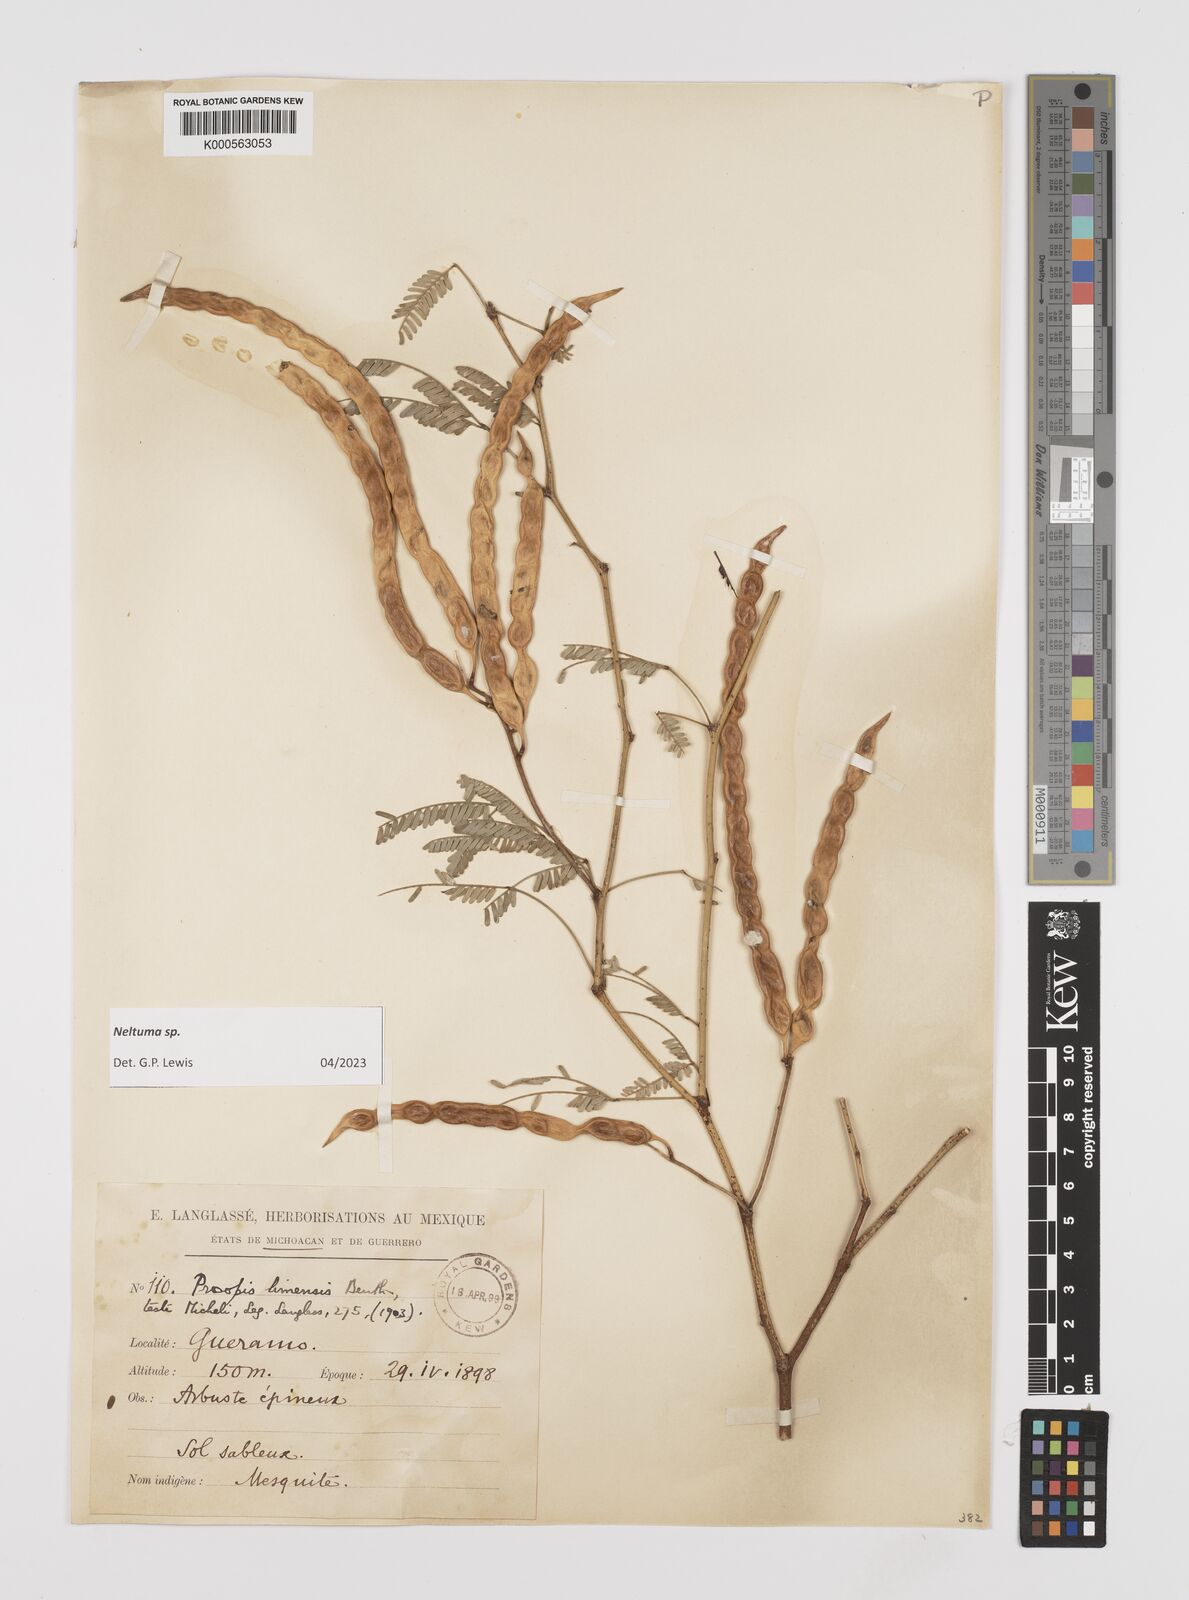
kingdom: Plantae
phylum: Tracheophyta
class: Magnoliopsida
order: Fabales
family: Fabaceae
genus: Prosopis
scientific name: Prosopis limensis
